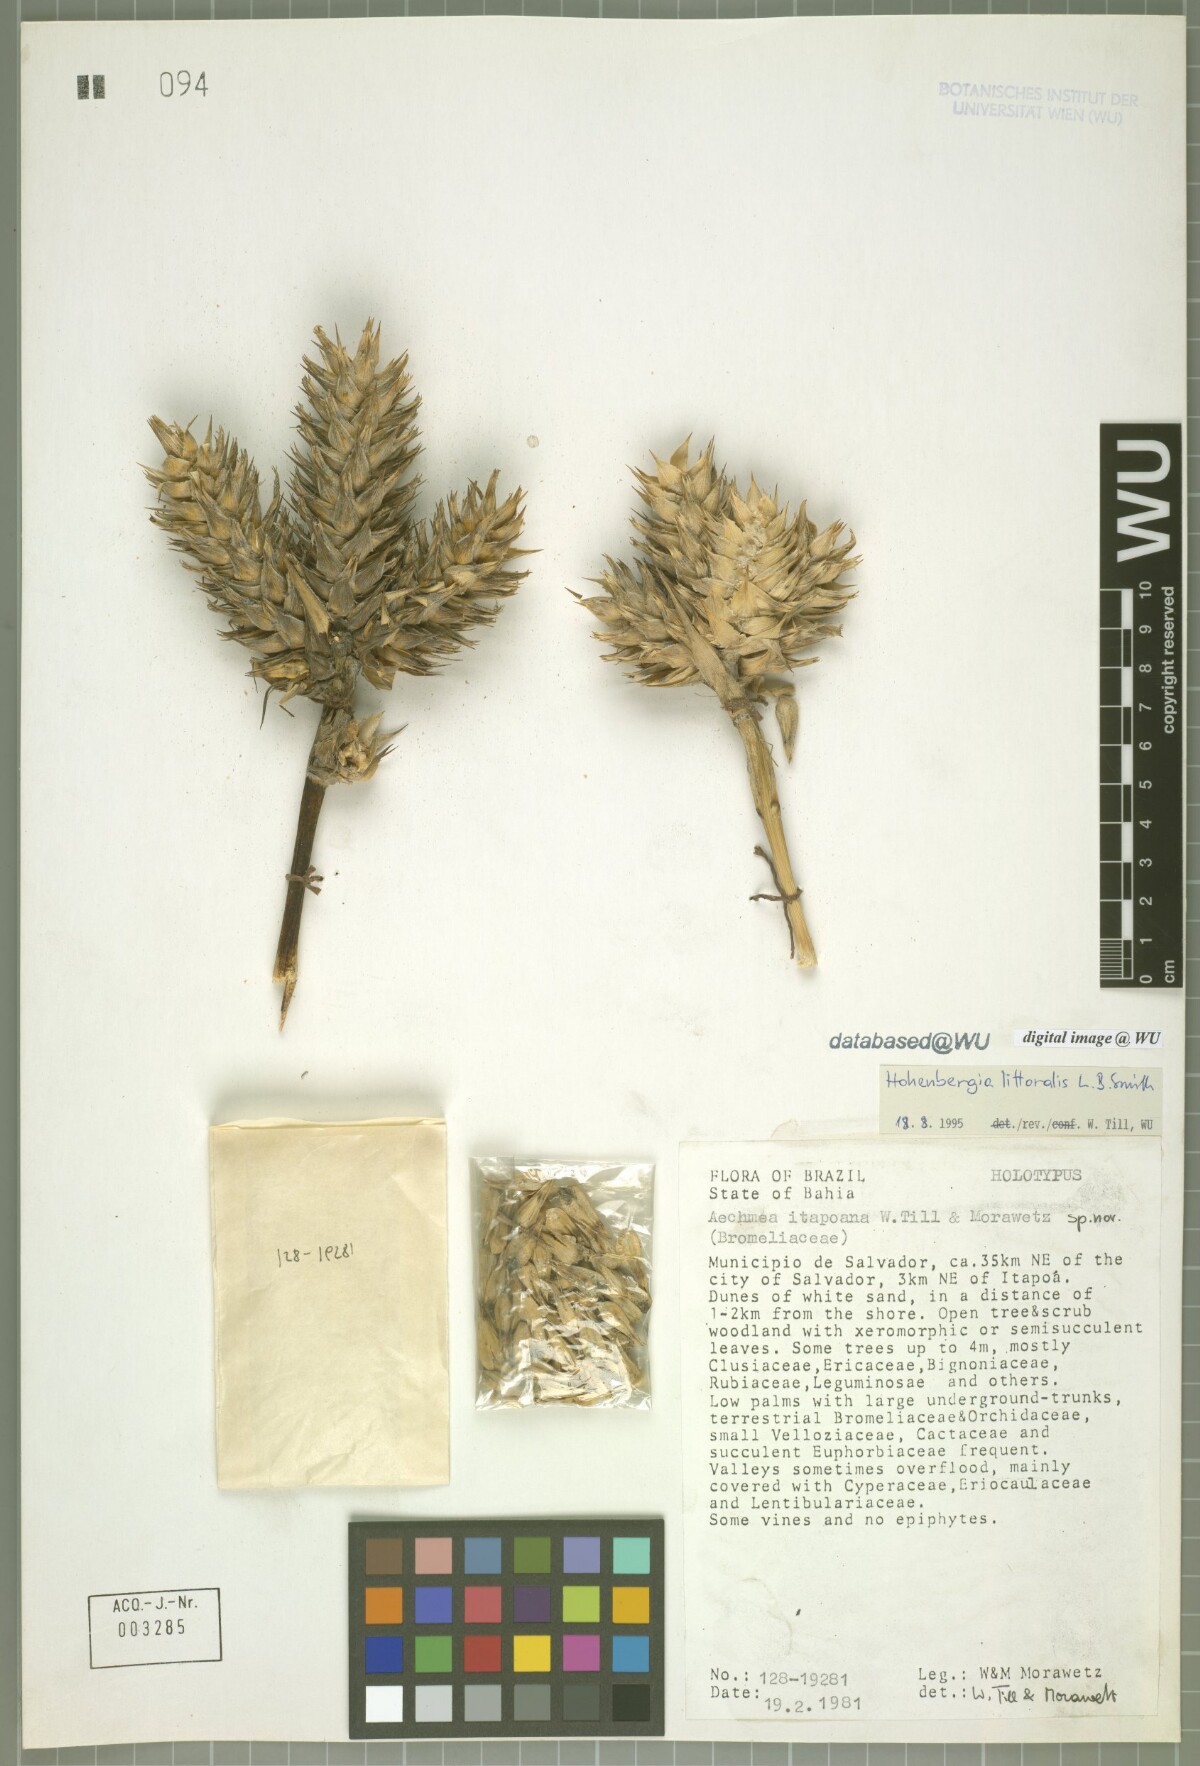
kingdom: Plantae
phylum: Tracheophyta
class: Liliopsida
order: Poales
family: Bromeliaceae
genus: Aechmea
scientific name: Aechmea itapoana
